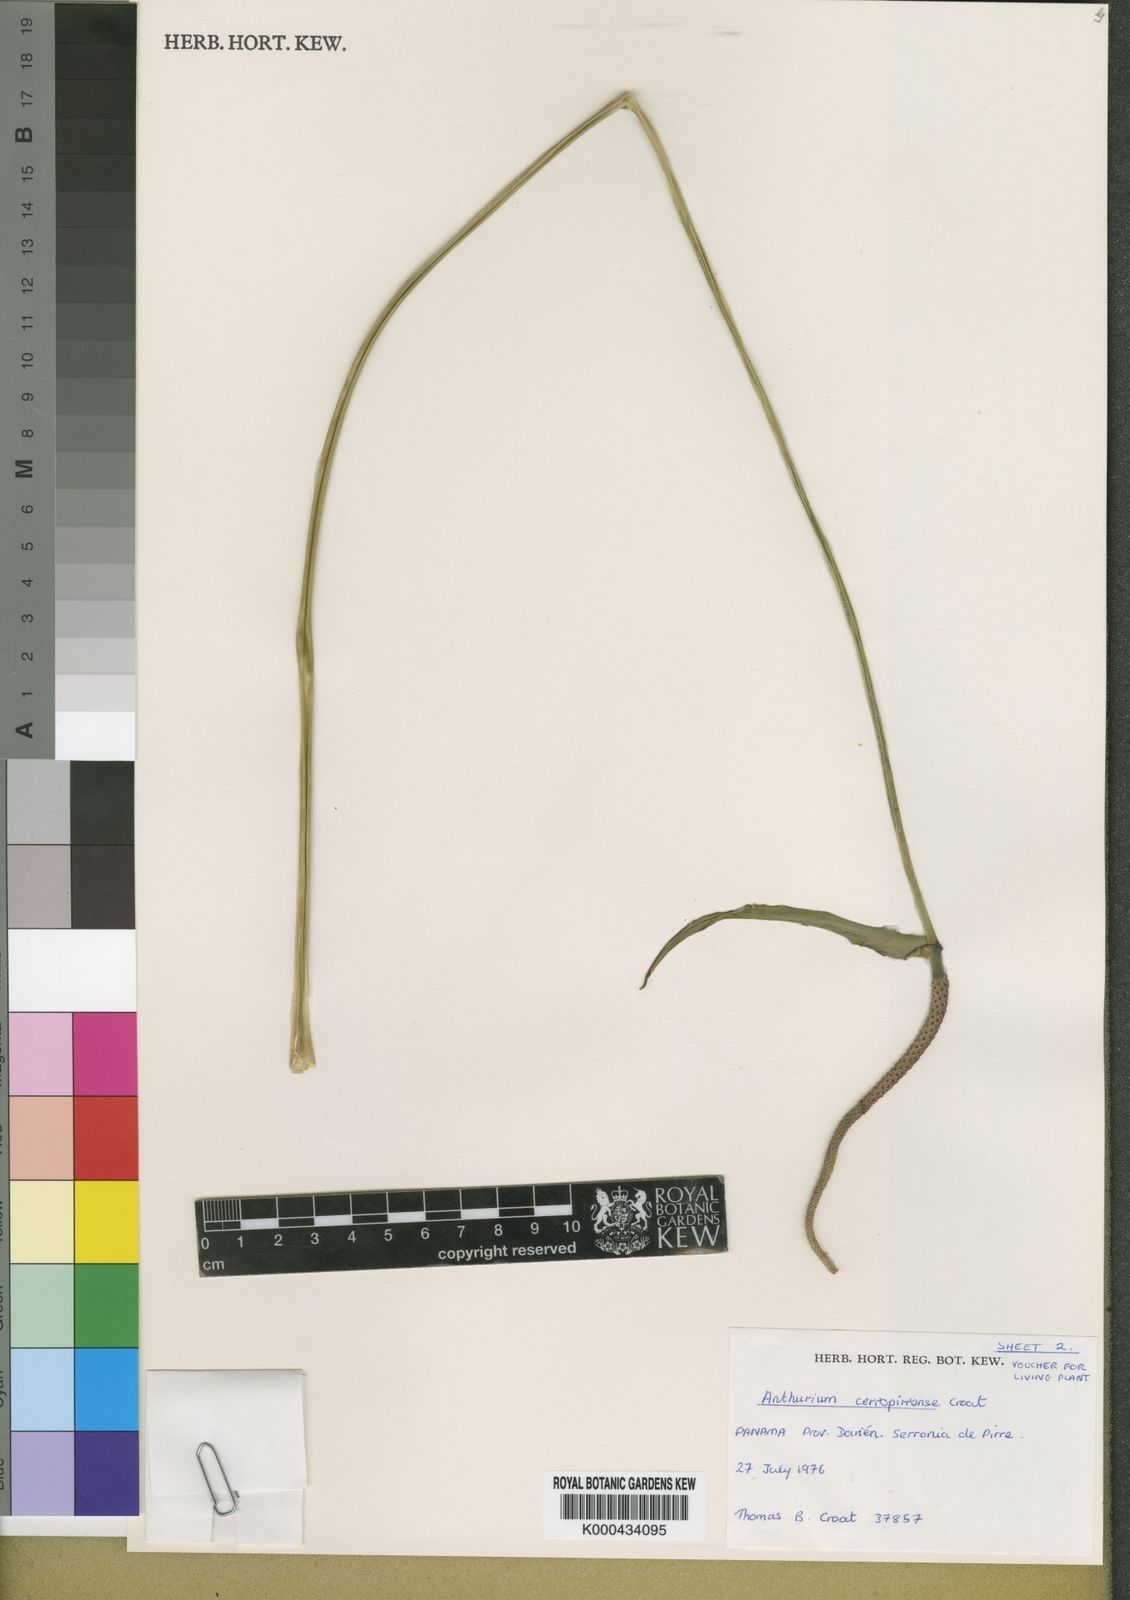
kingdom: Plantae
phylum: Tracheophyta
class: Liliopsida
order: Alismatales
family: Araceae
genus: Anthurium
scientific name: Anthurium cerropirrense
